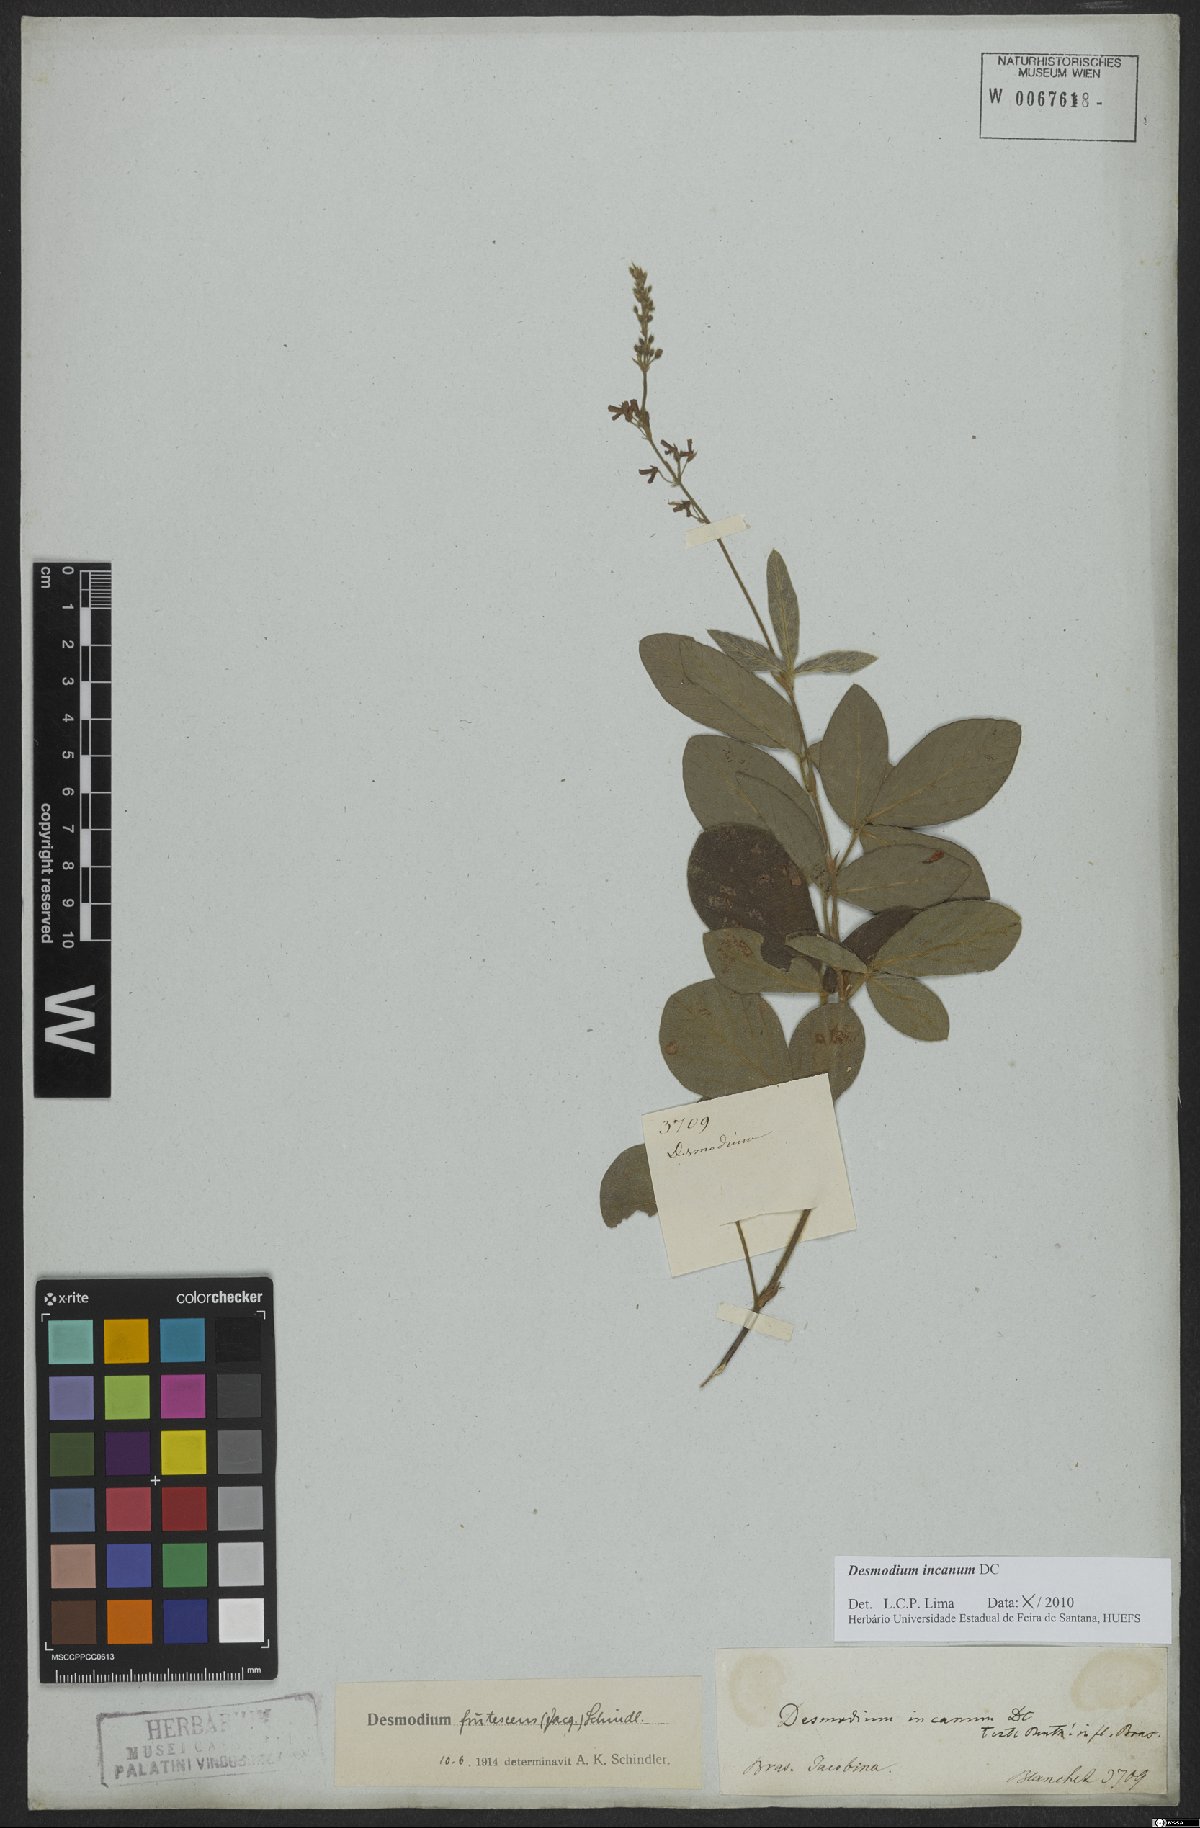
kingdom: Plantae
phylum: Tracheophyta
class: Magnoliopsida
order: Fabales
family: Fabaceae
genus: Desmodium
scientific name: Desmodium incanum
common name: Tickclover
